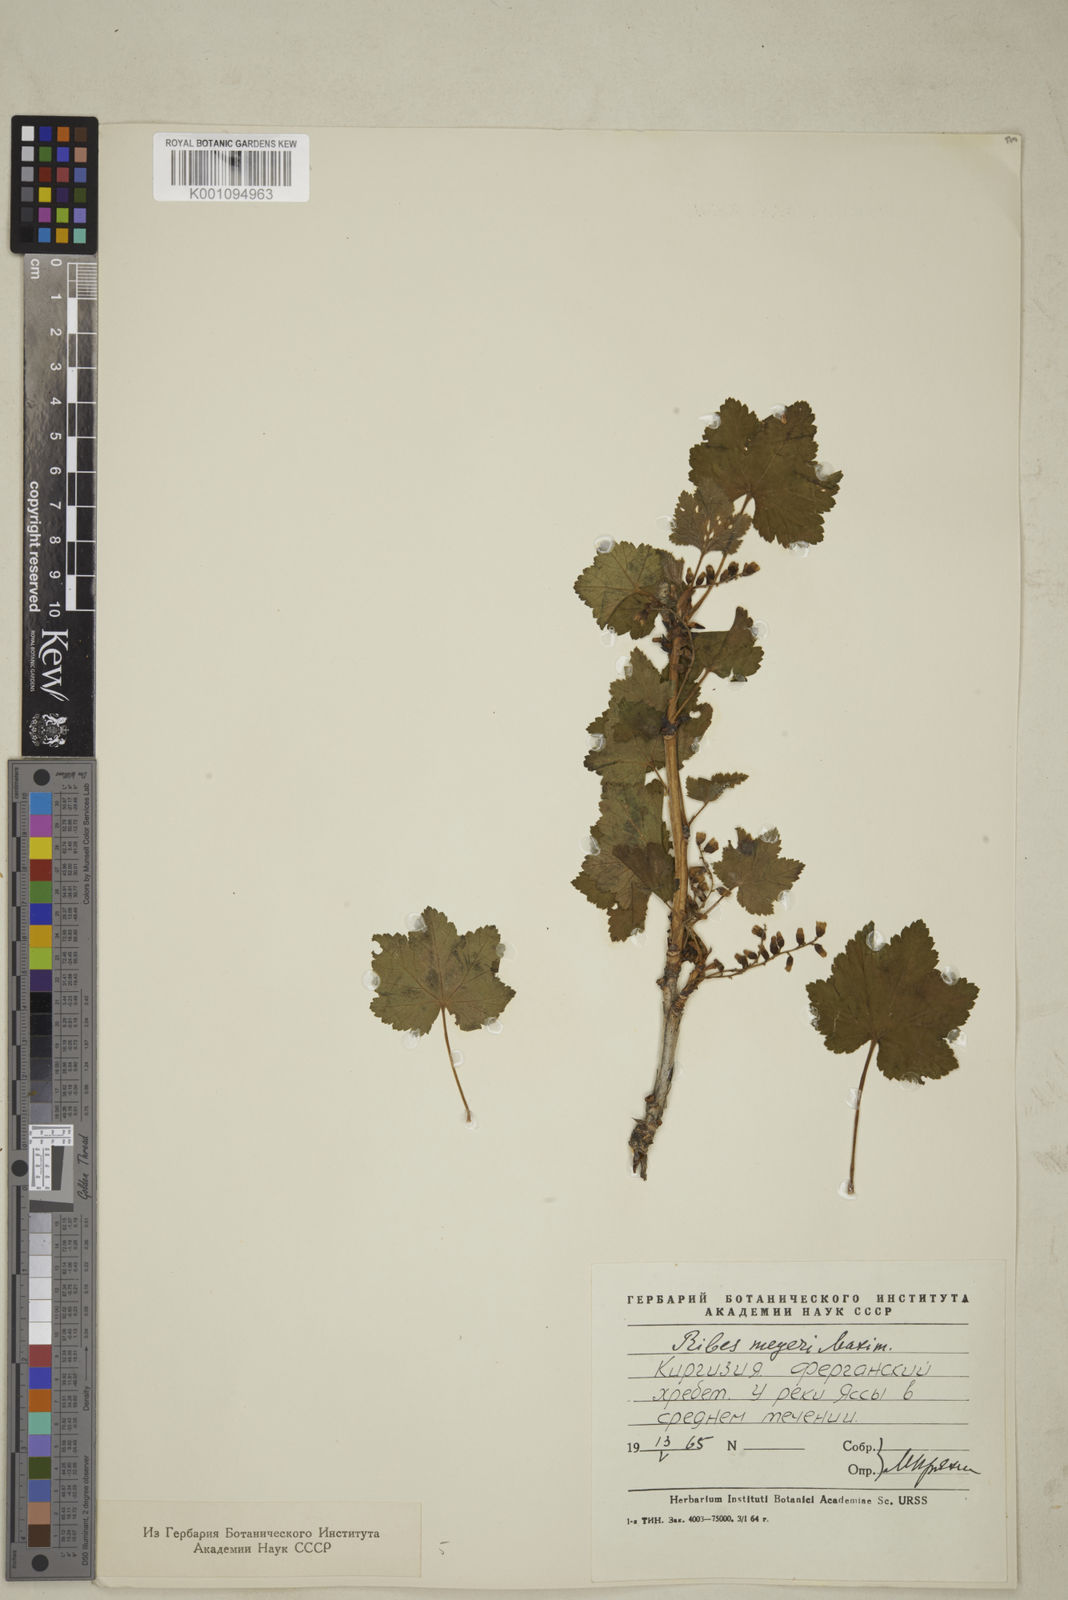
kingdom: Plantae
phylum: Tracheophyta
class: Magnoliopsida
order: Saxifragales
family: Grossulariaceae
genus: Ribes
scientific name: Ribes meyeri
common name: Meyer's currant
